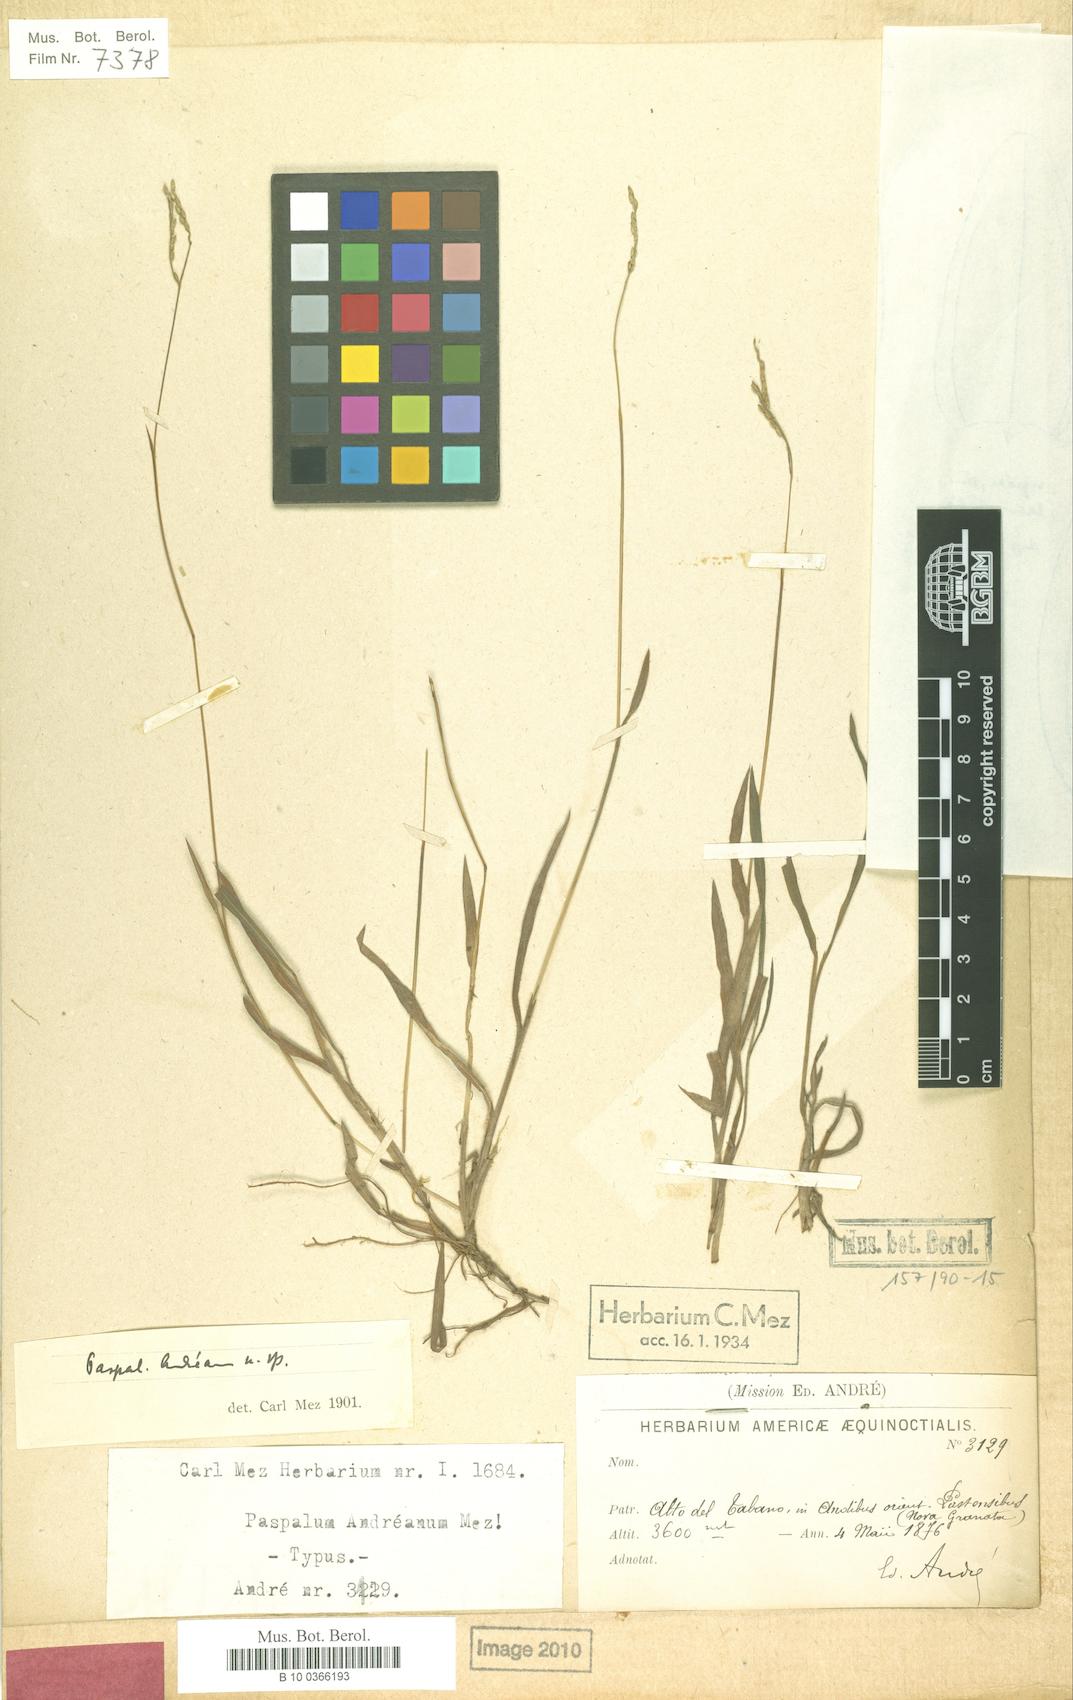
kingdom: Plantae
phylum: Tracheophyta
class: Liliopsida
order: Poales
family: Poaceae
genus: Paspalum
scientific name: Paspalum hirtum
